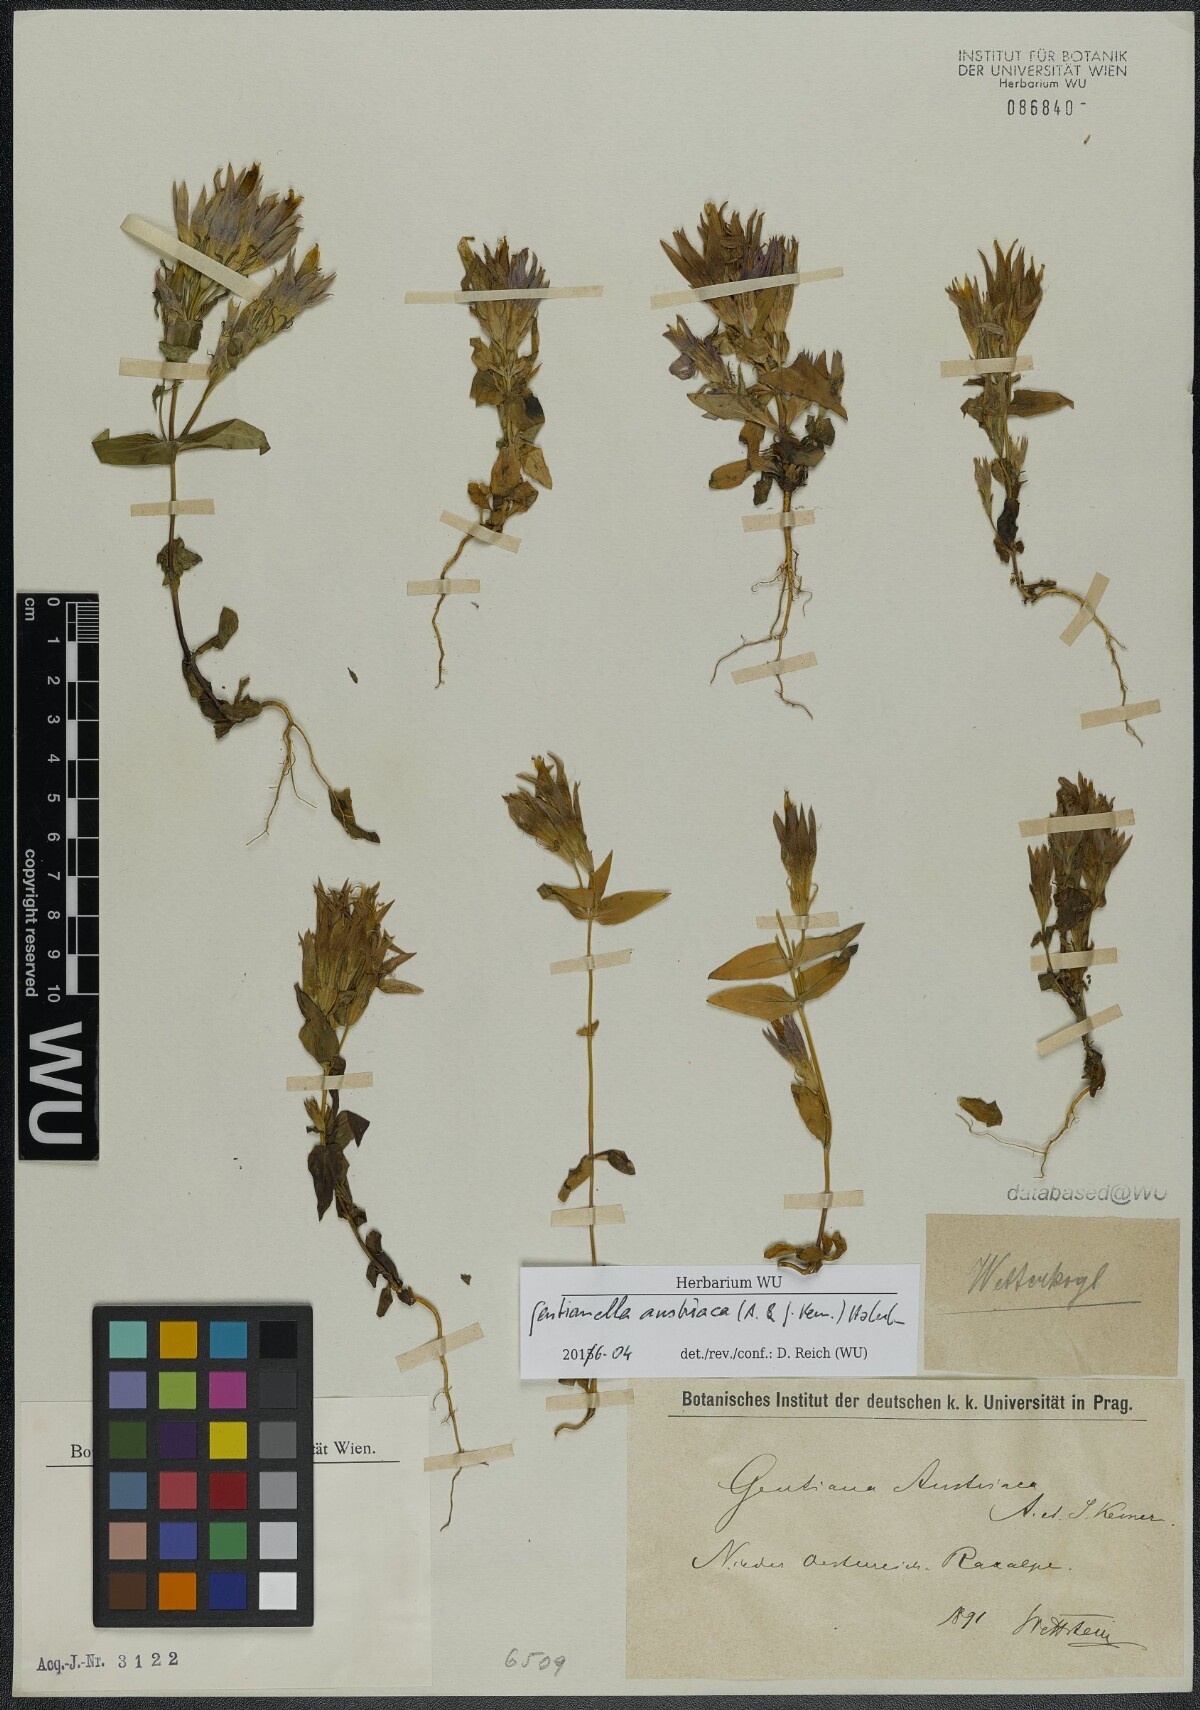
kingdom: Plantae
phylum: Tracheophyta
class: Magnoliopsida
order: Gentianales
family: Gentianaceae
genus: Gentianella
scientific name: Gentianella austriaca
